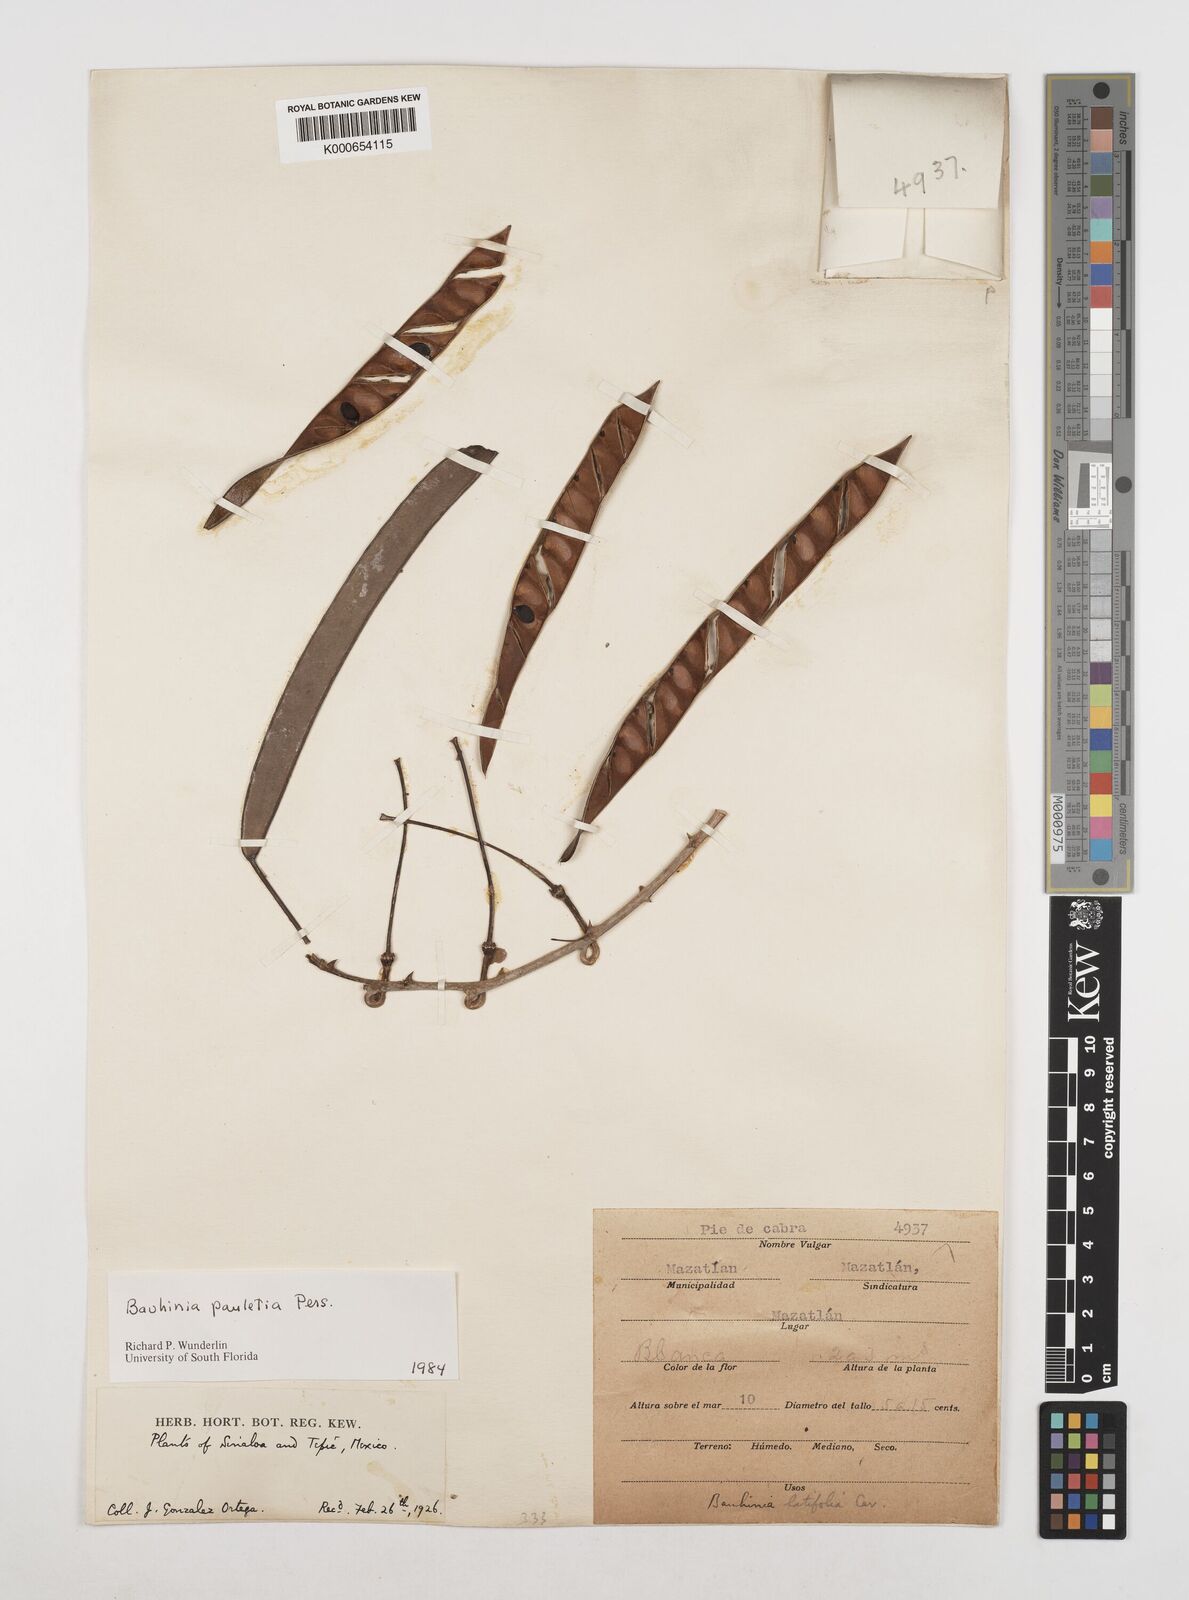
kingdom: Plantae
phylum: Tracheophyta
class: Magnoliopsida
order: Fabales
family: Fabaceae
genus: Bauhinia
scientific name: Bauhinia pauletia
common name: Railway-fence bauhinia
